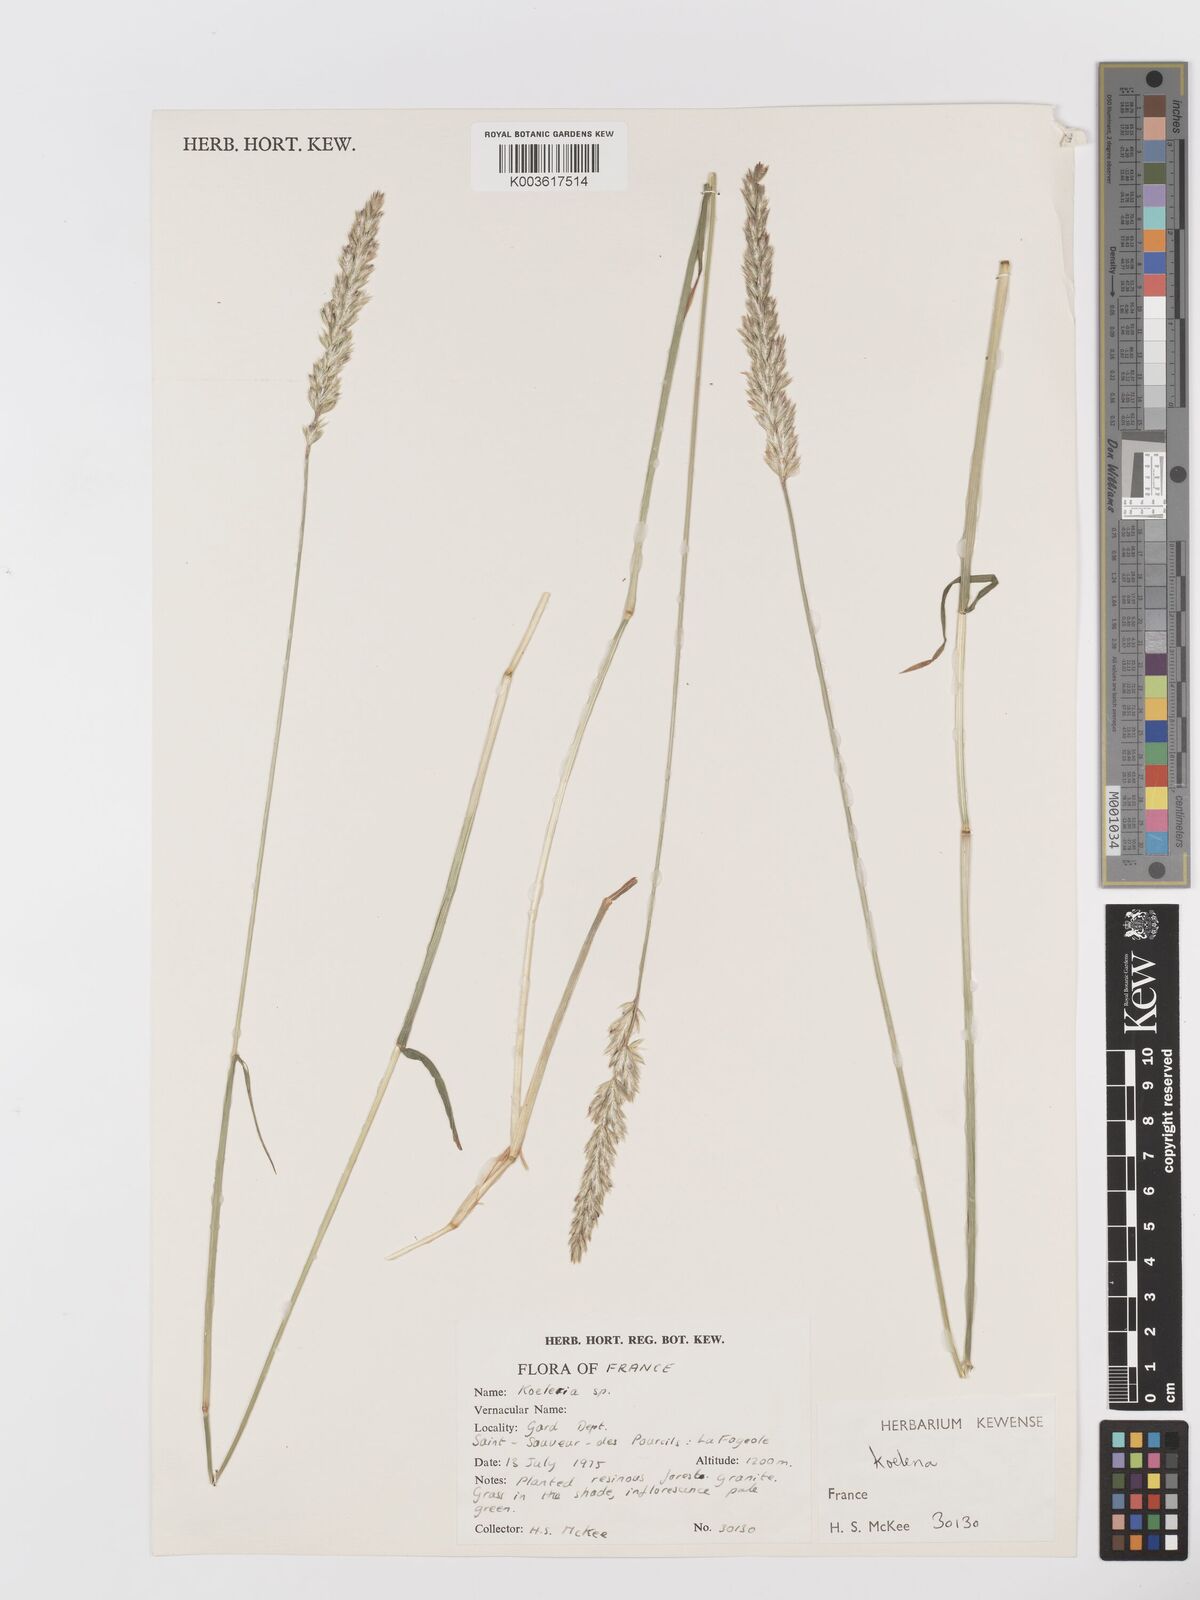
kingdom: Plantae
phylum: Tracheophyta
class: Liliopsida
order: Poales
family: Poaceae
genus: Koeleria
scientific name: Koeleria
